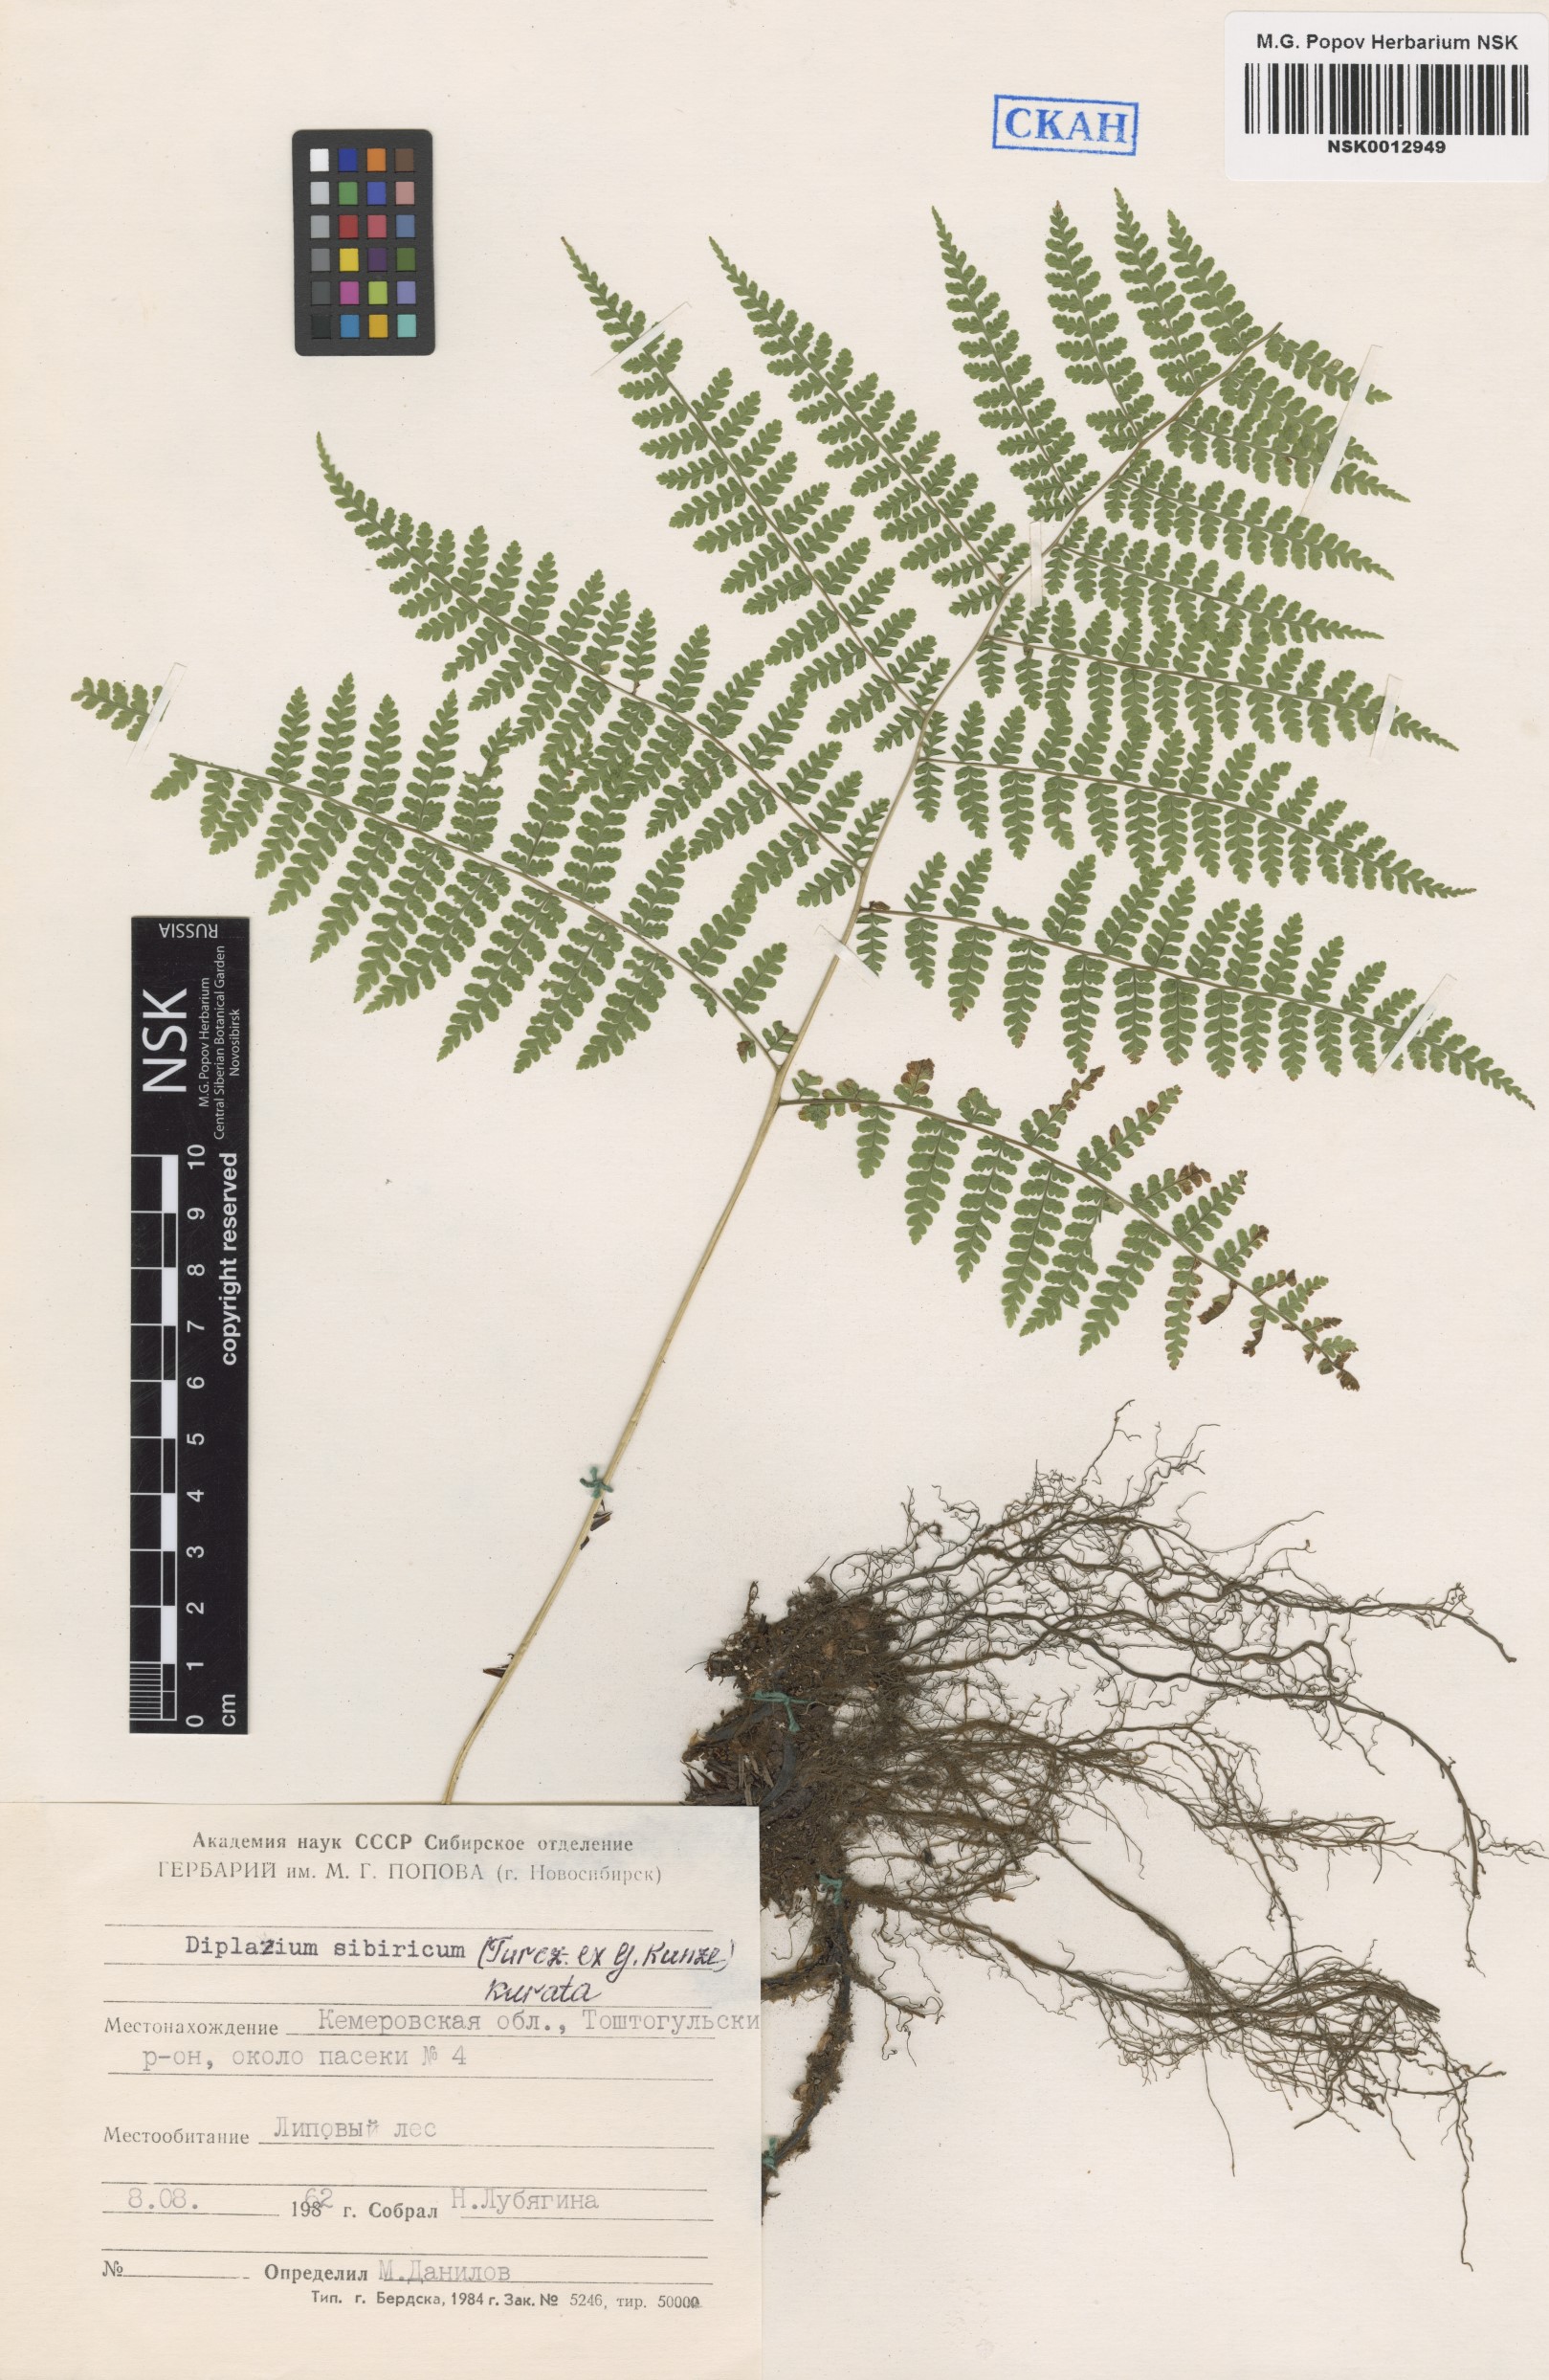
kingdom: Plantae
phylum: Tracheophyta
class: Polypodiopsida
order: Polypodiales
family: Athyriaceae
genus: Diplazium
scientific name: Diplazium sibiricum
